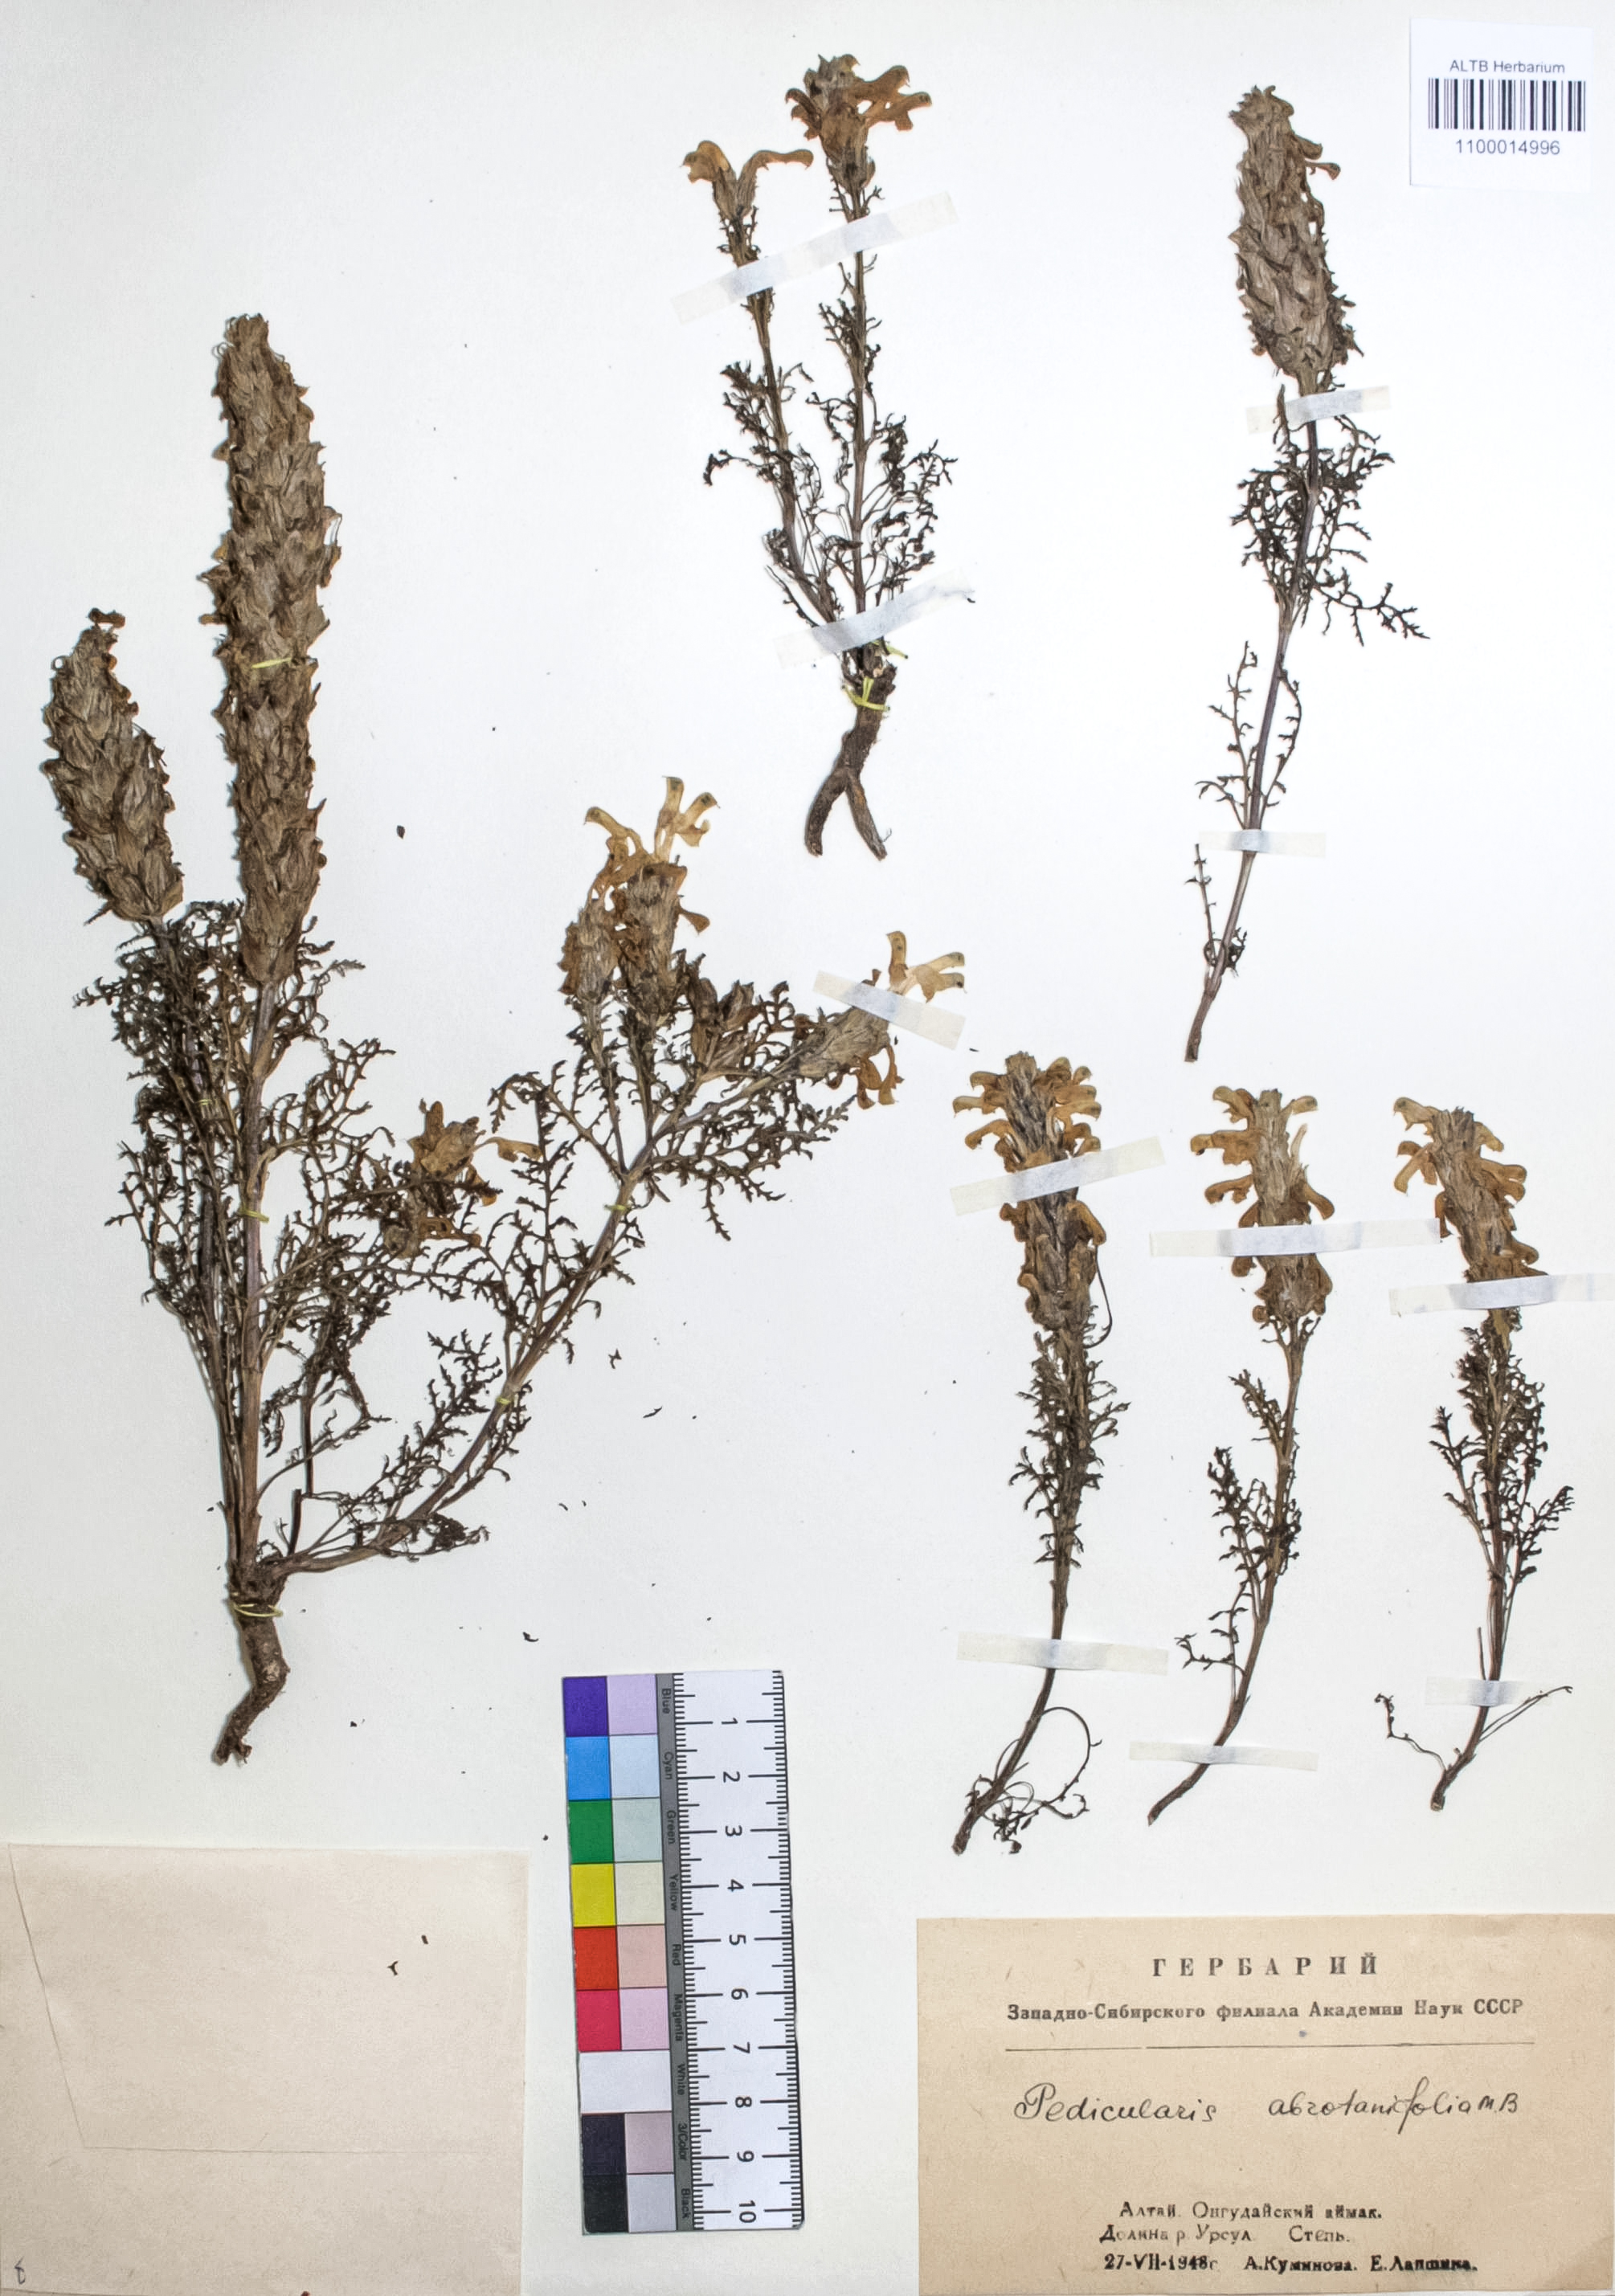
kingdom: Plantae
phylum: Tracheophyta
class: Magnoliopsida
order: Lamiales
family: Orobanchaceae
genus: Pedicularis
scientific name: Pedicularis abrotanifolia
